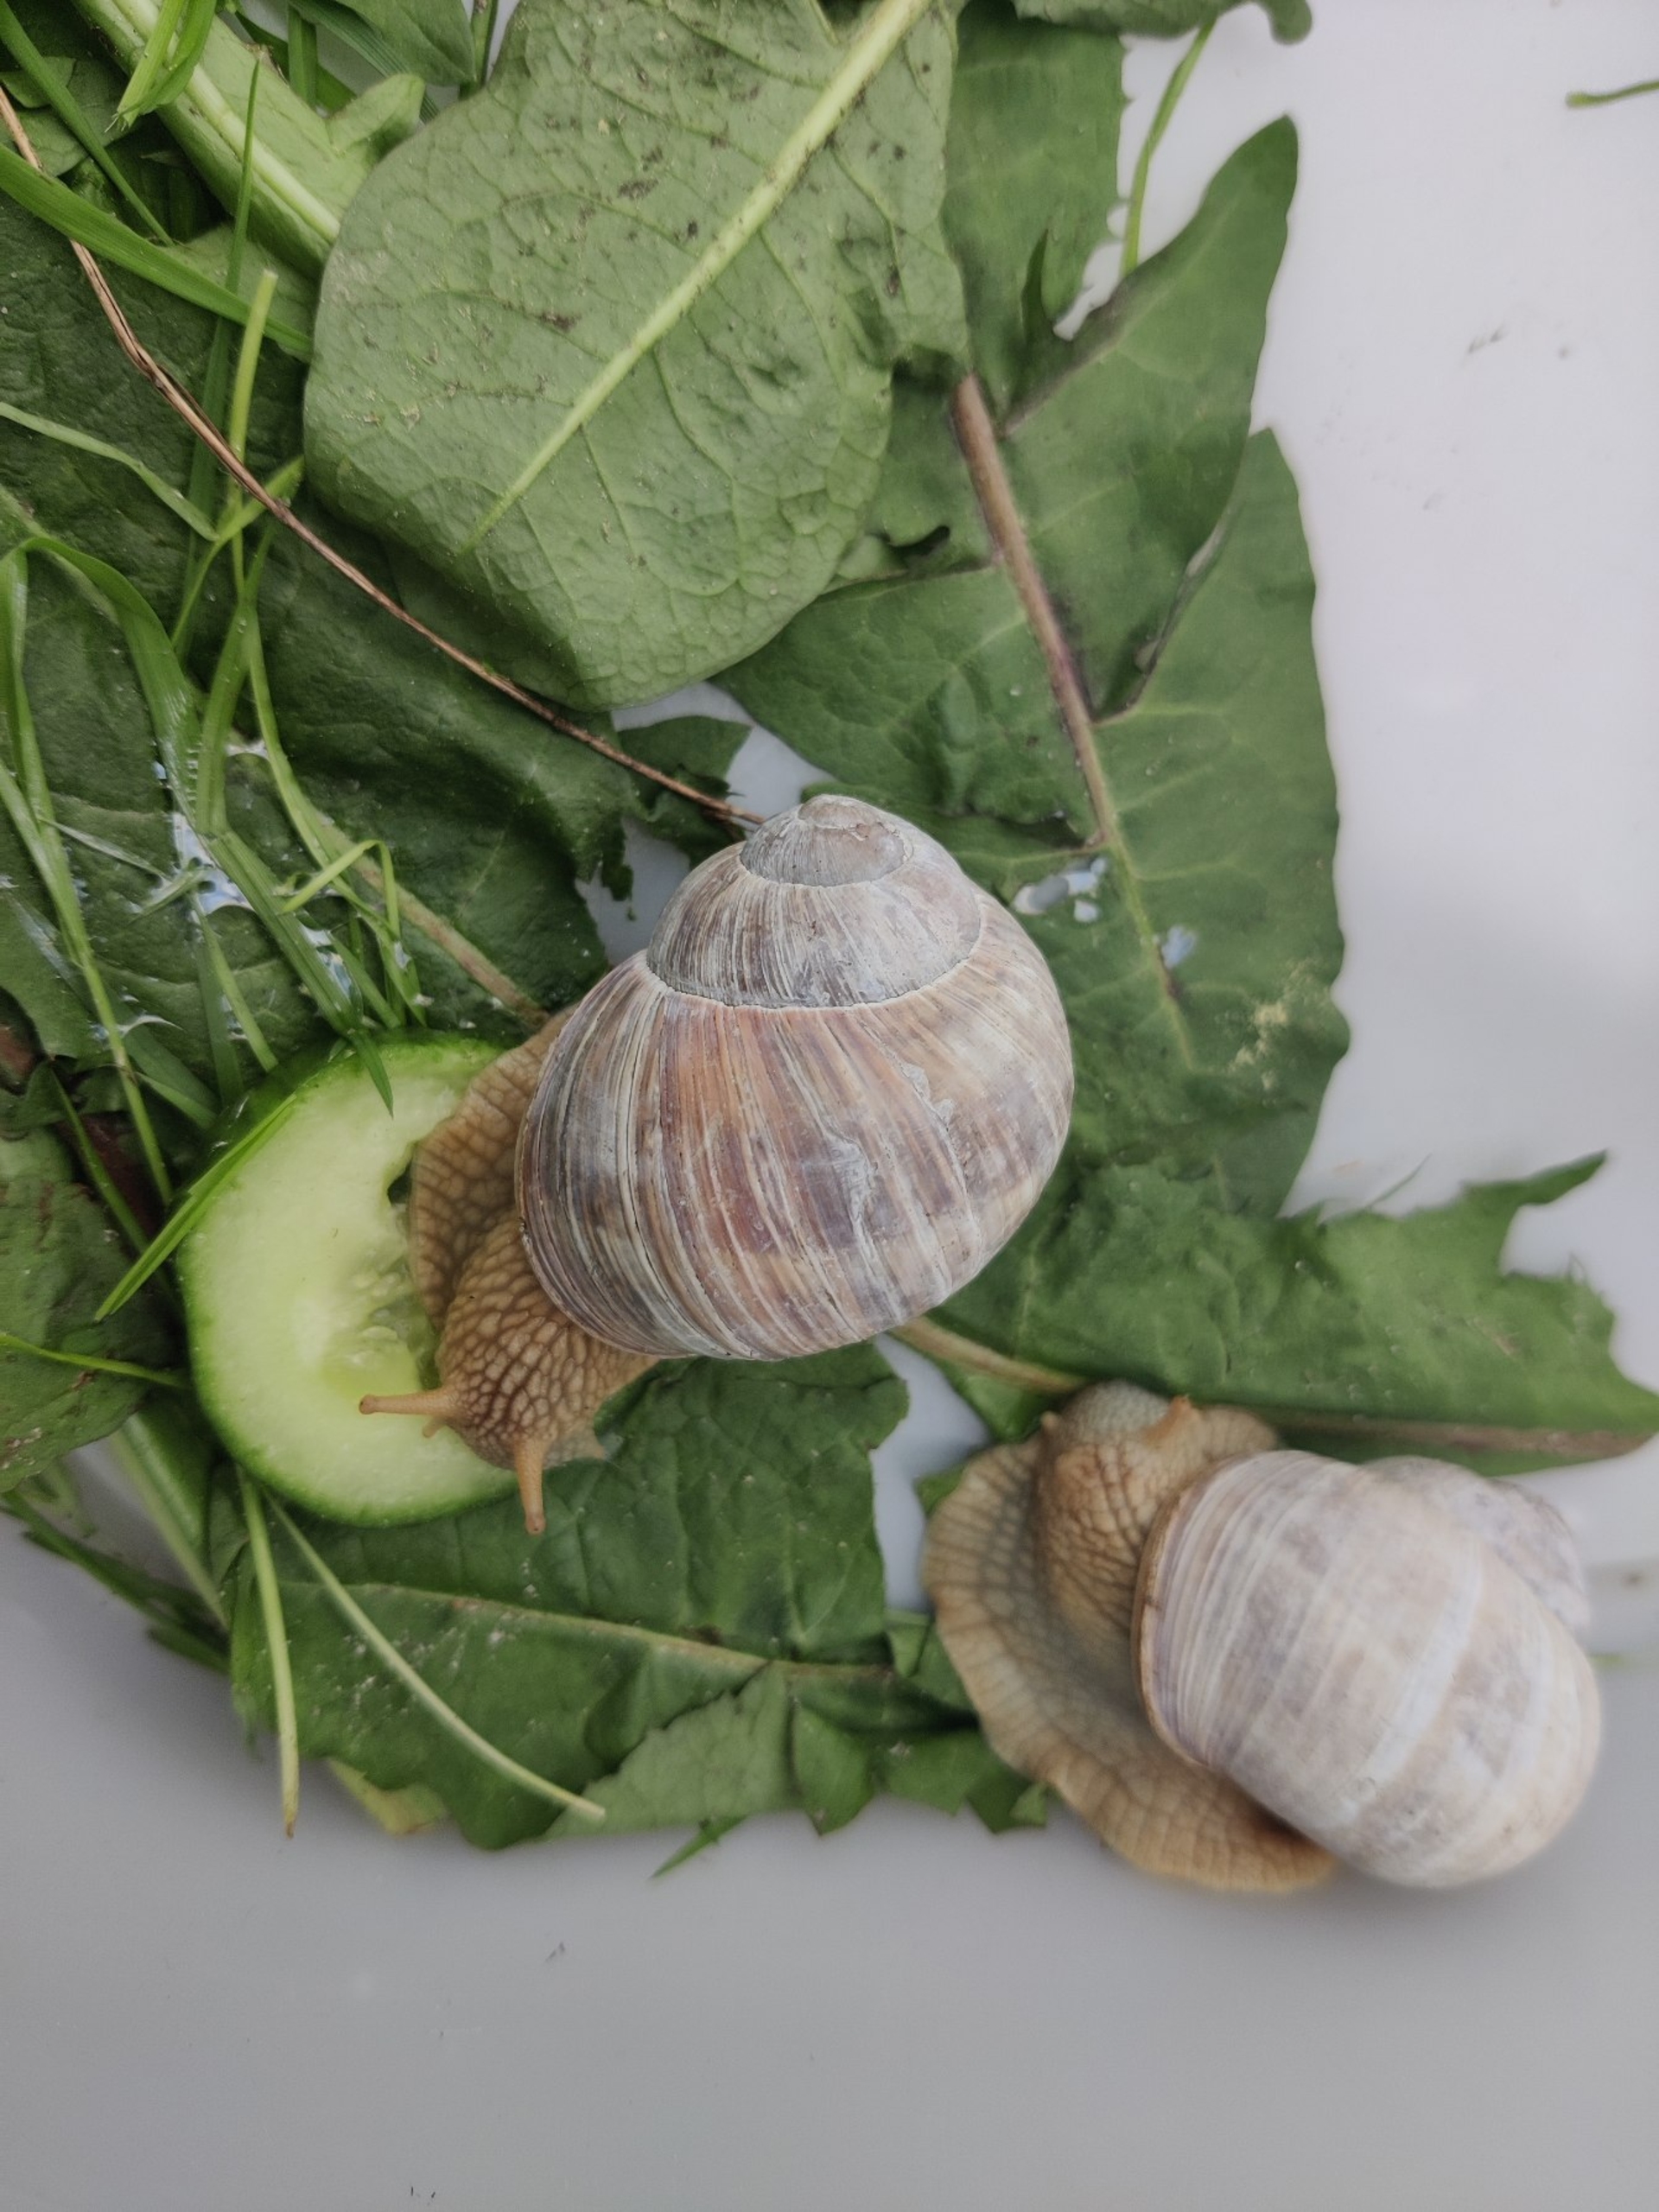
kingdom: Animalia
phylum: Mollusca
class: Gastropoda
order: Stylommatophora
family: Helicidae
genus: Helix
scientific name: Helix pomatia
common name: Vinbjergsnegl
